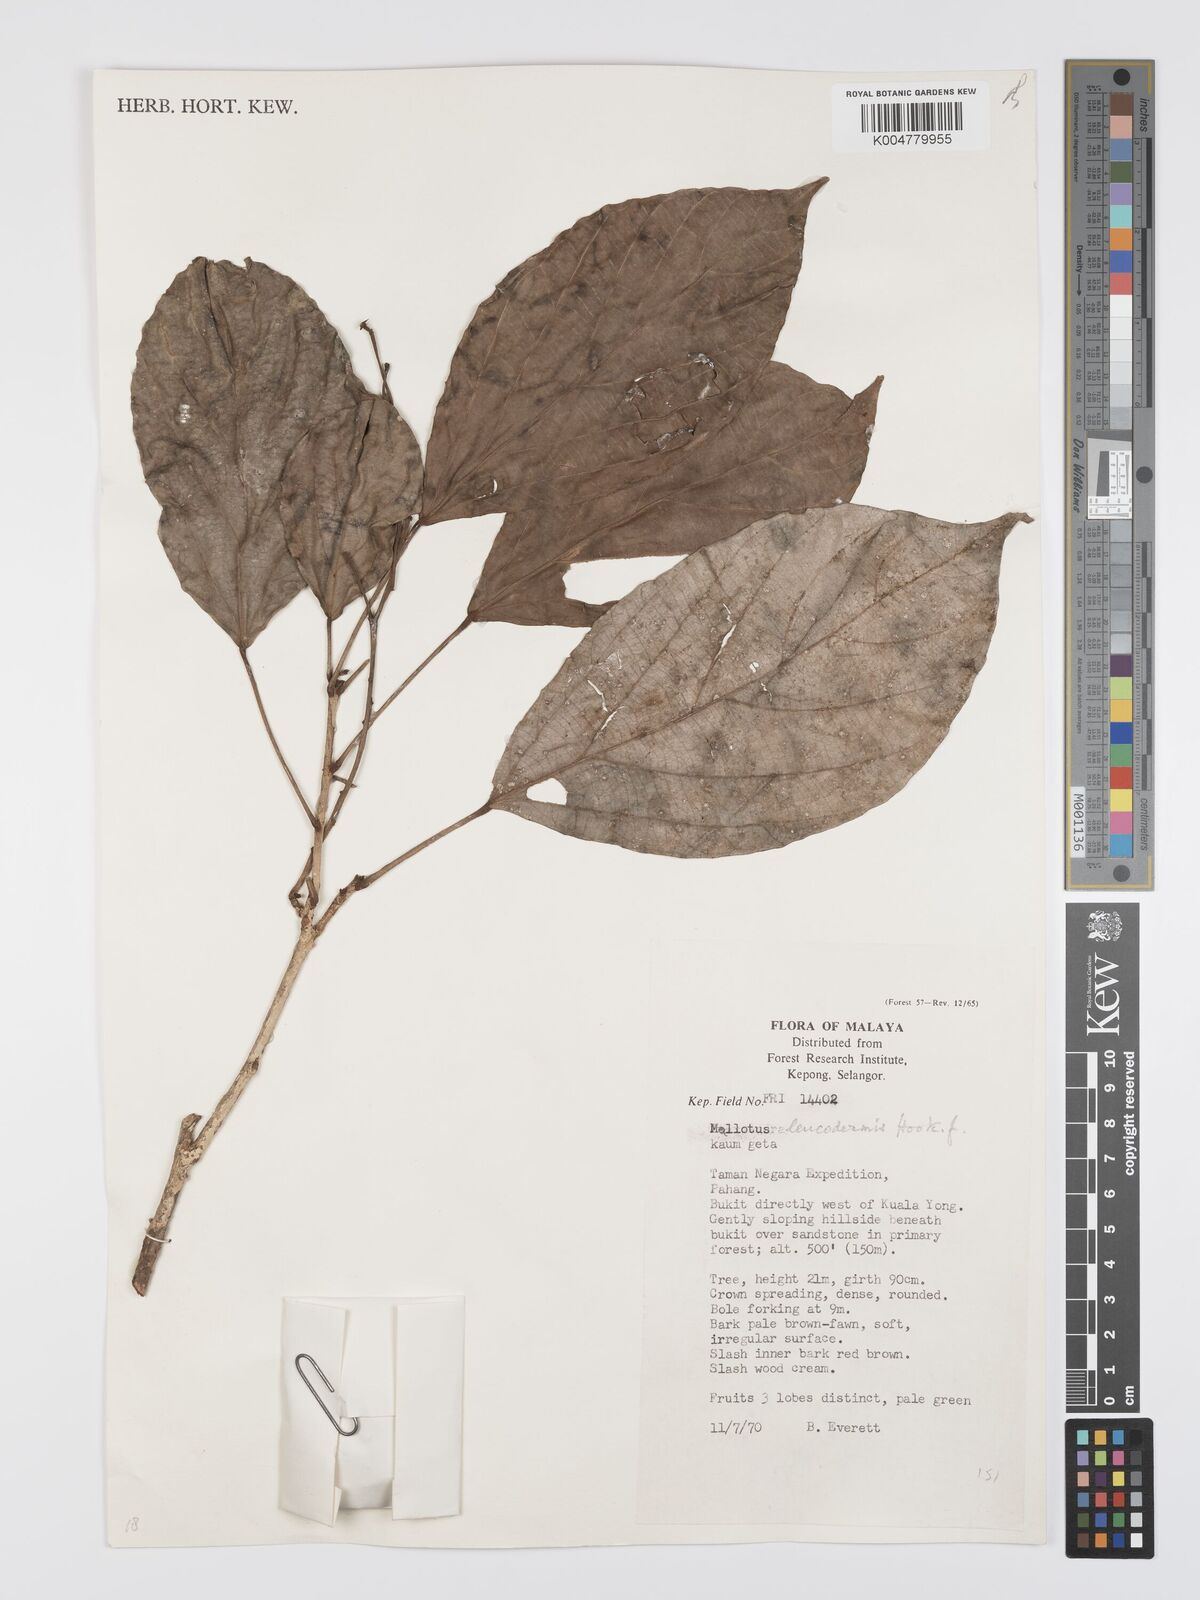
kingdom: Plantae
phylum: Tracheophyta
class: Magnoliopsida
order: Malpighiales
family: Euphorbiaceae
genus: Mallotus
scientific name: Mallotus leucodermis
